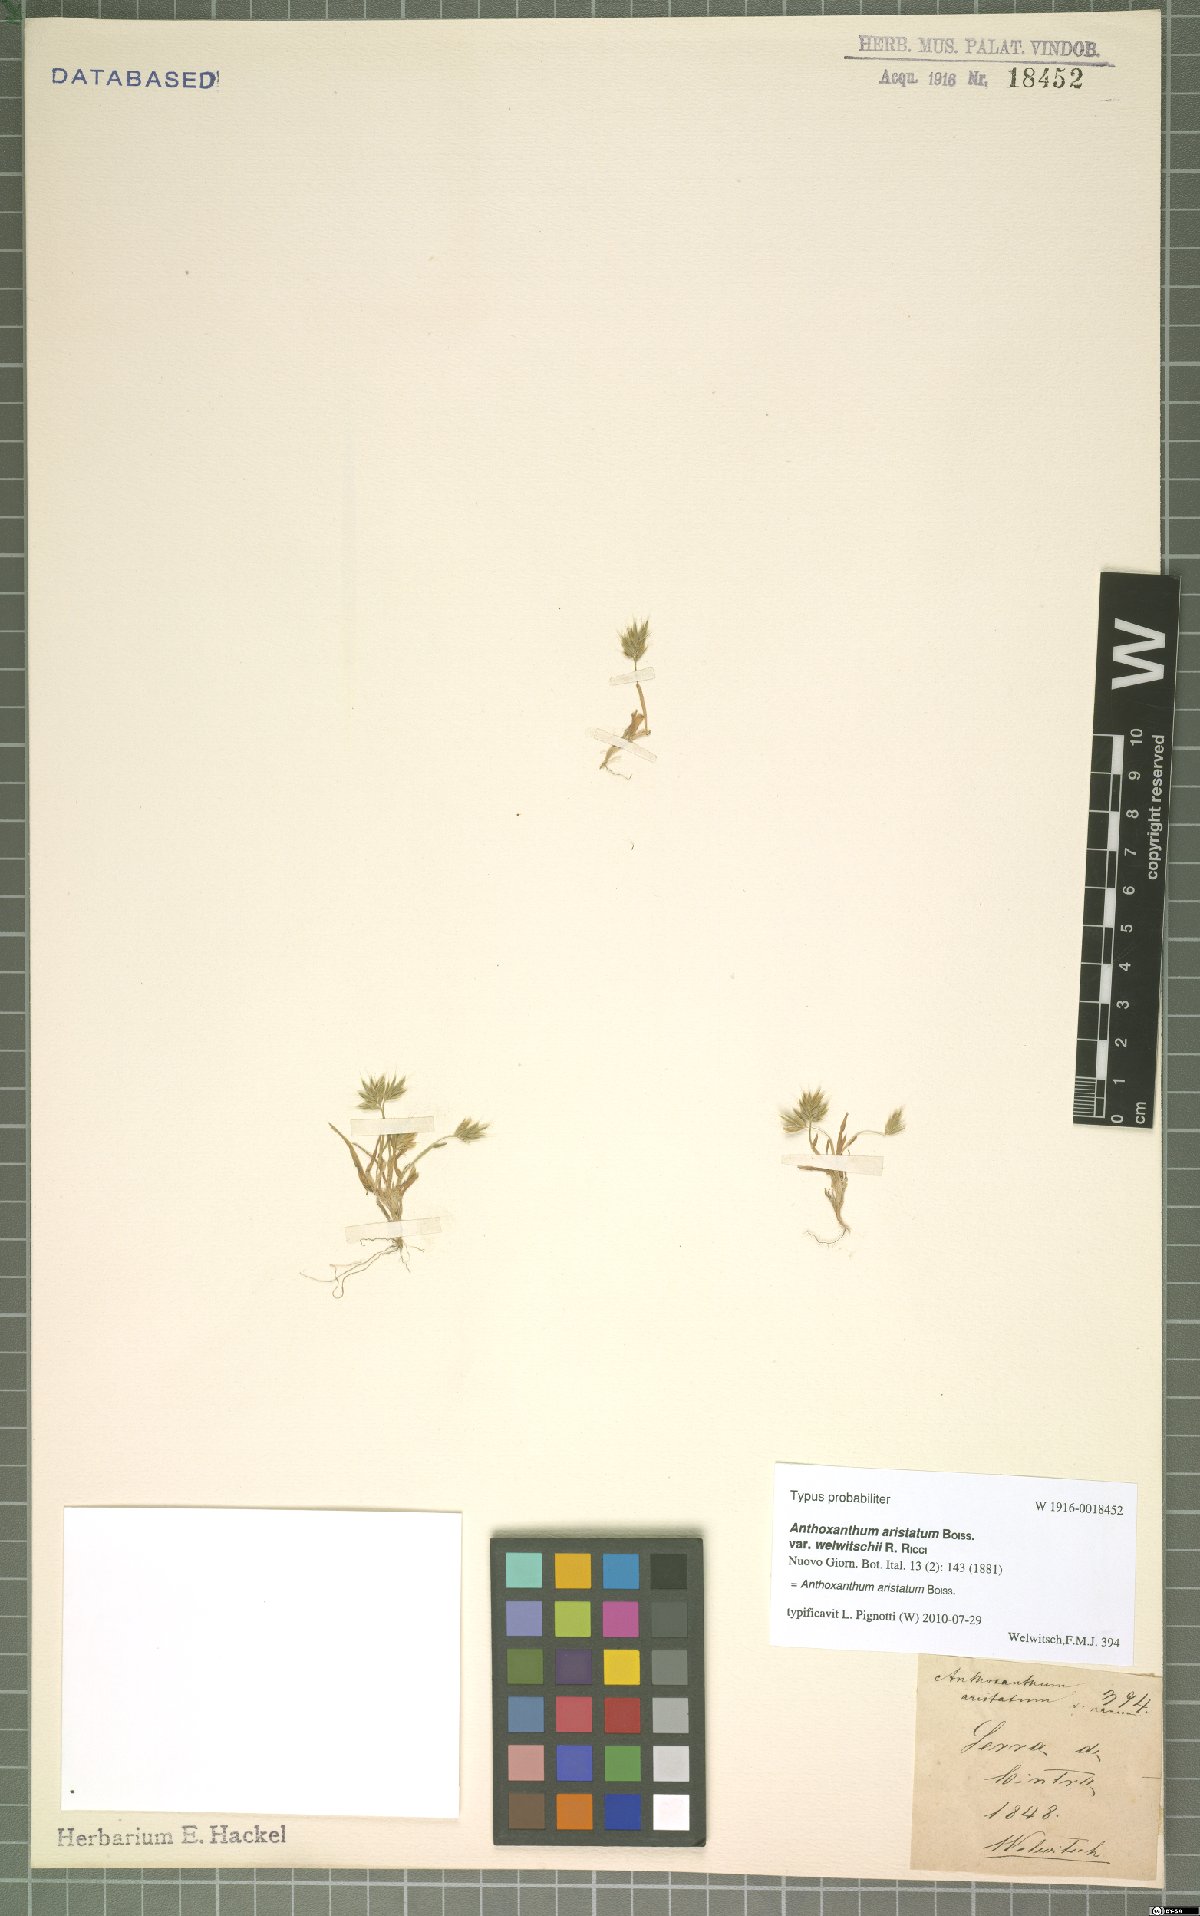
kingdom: Plantae
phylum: Tracheophyta
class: Liliopsida
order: Poales
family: Poaceae
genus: Anthoxanthum
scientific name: Anthoxanthum aristatum
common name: Annual vernal-grass
